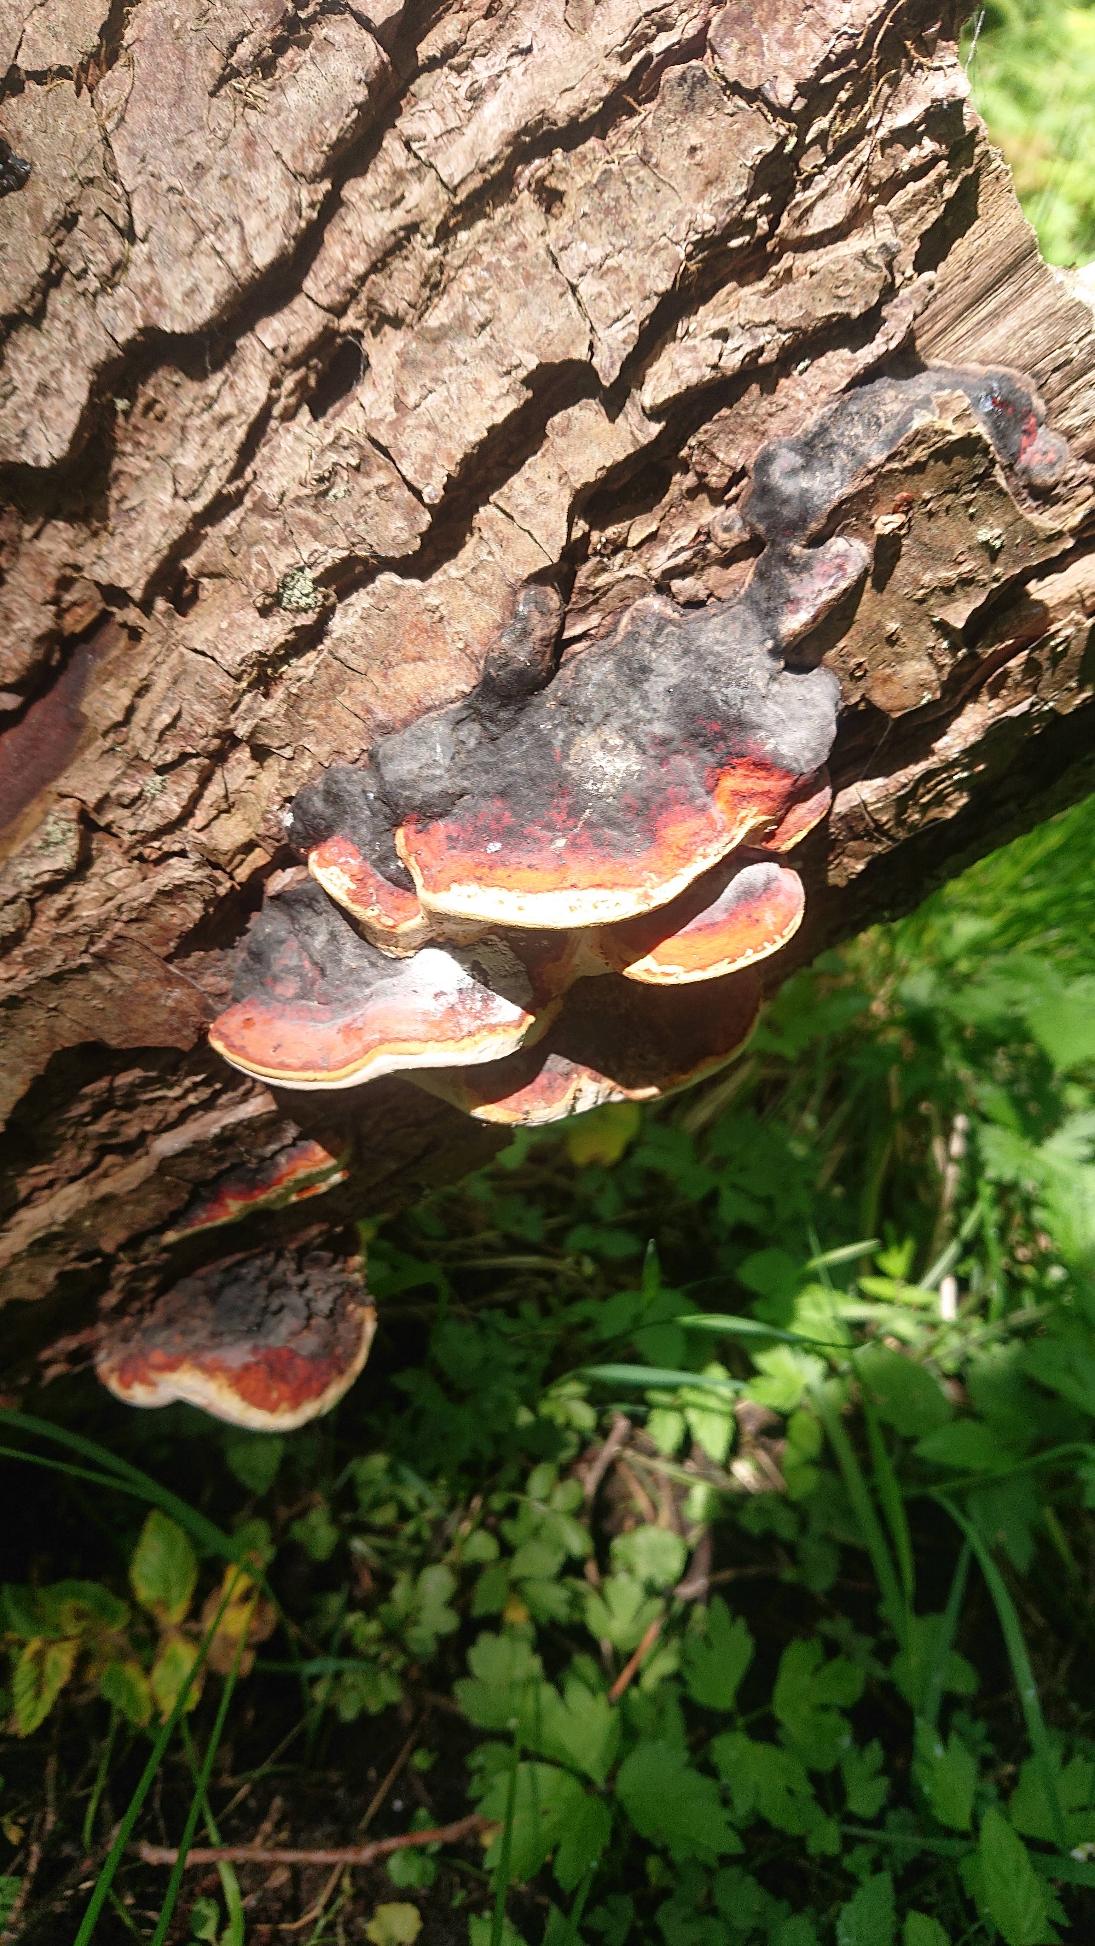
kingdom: Fungi
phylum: Basidiomycota
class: Agaricomycetes
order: Polyporales
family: Fomitopsidaceae
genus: Fomitopsis
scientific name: Fomitopsis pinicola
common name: Randbæltet hovporesvamp
